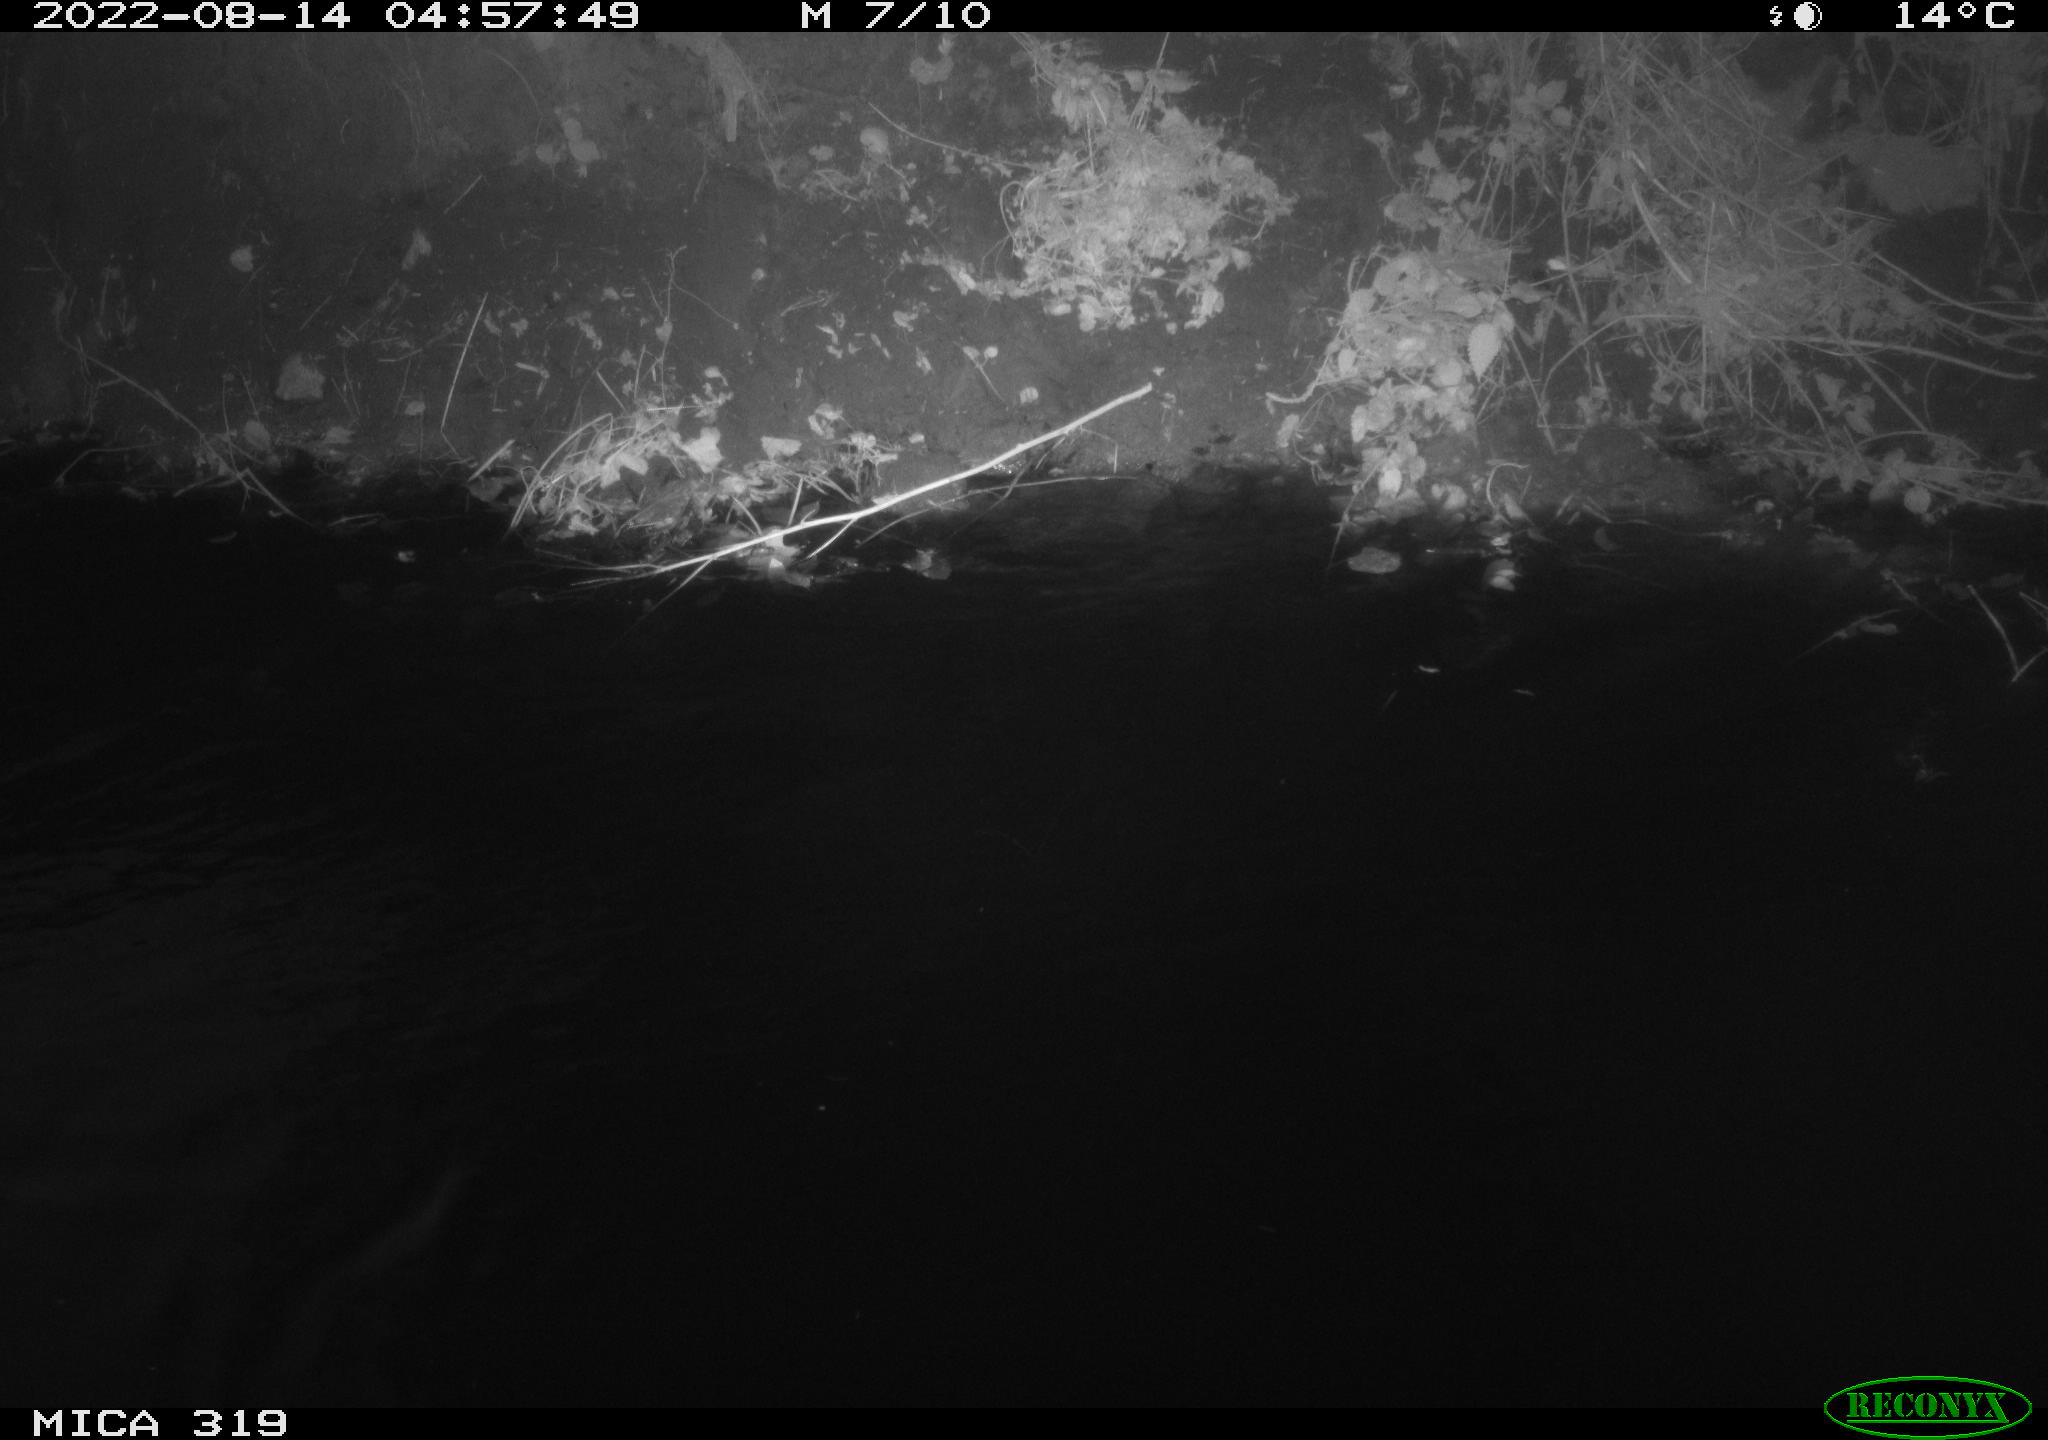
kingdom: Animalia
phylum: Chordata
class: Aves
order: Anseriformes
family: Anatidae
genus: Anas
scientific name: Anas
